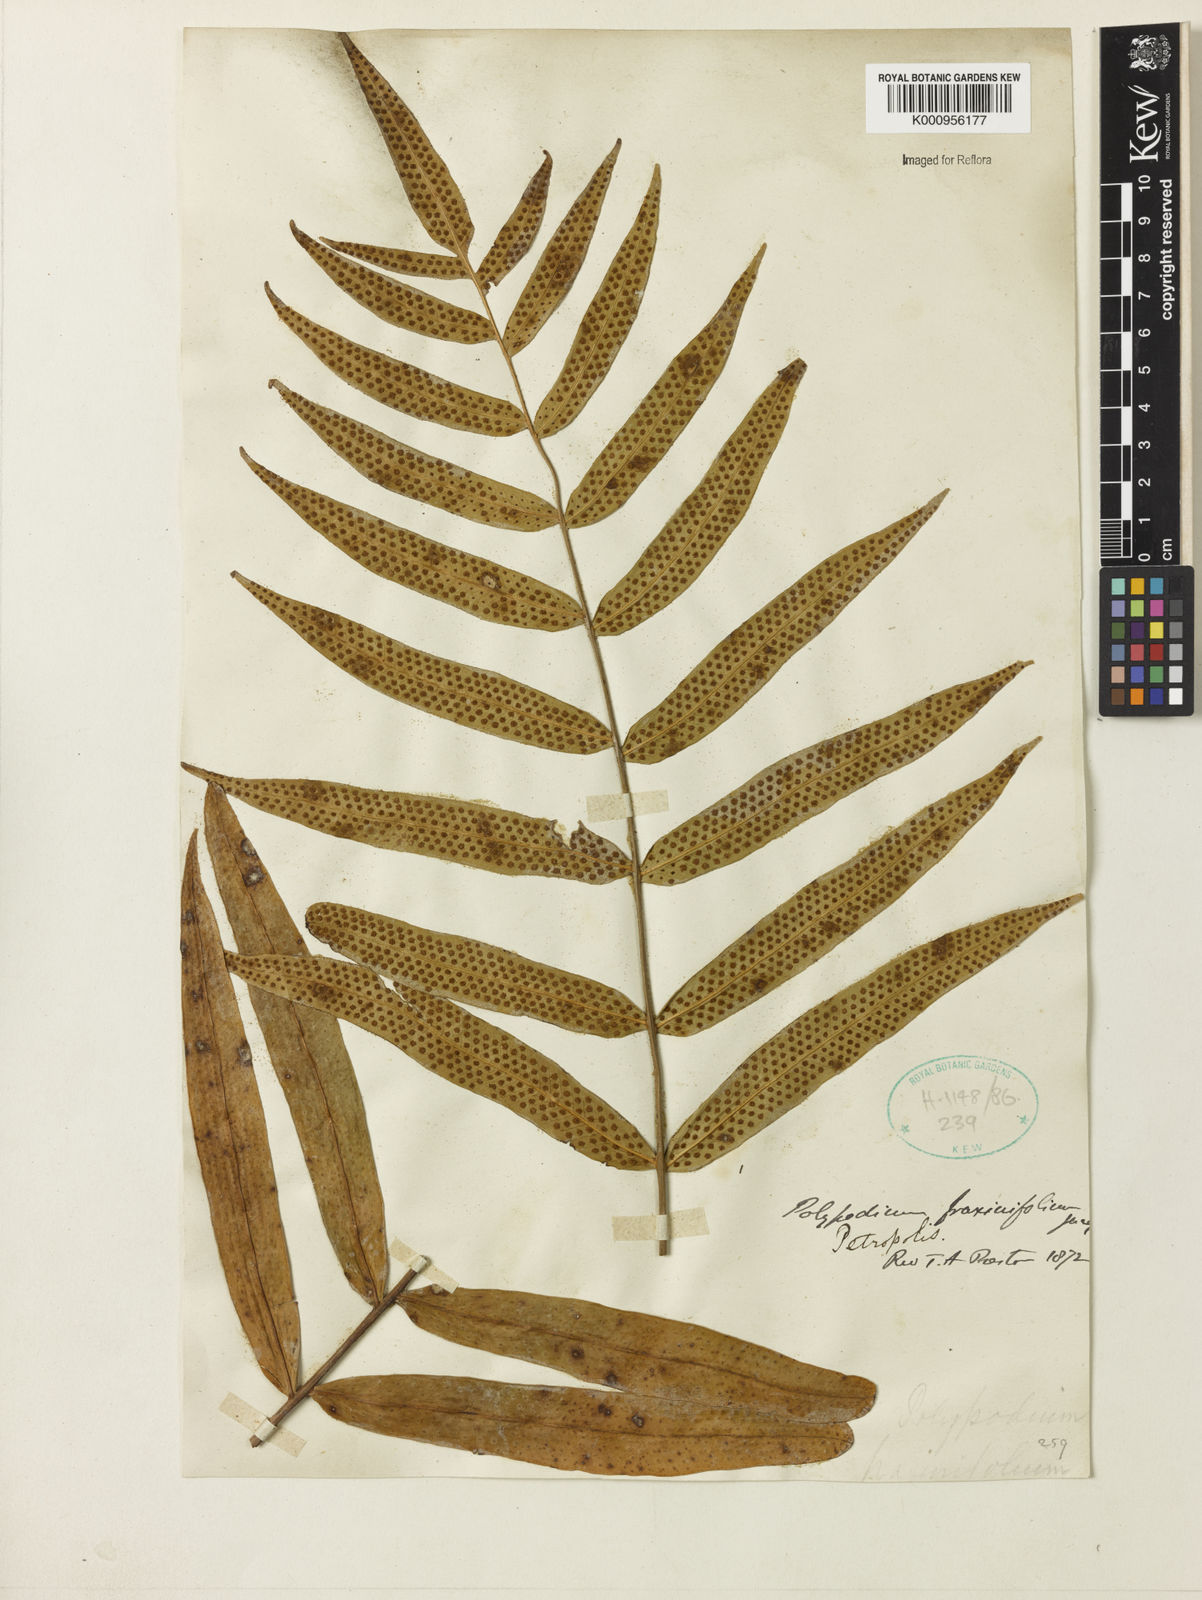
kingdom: Plantae
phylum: Tracheophyta
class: Polypodiopsida
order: Polypodiales
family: Polypodiaceae
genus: Serpocaulon
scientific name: Serpocaulon fraxinifolium
